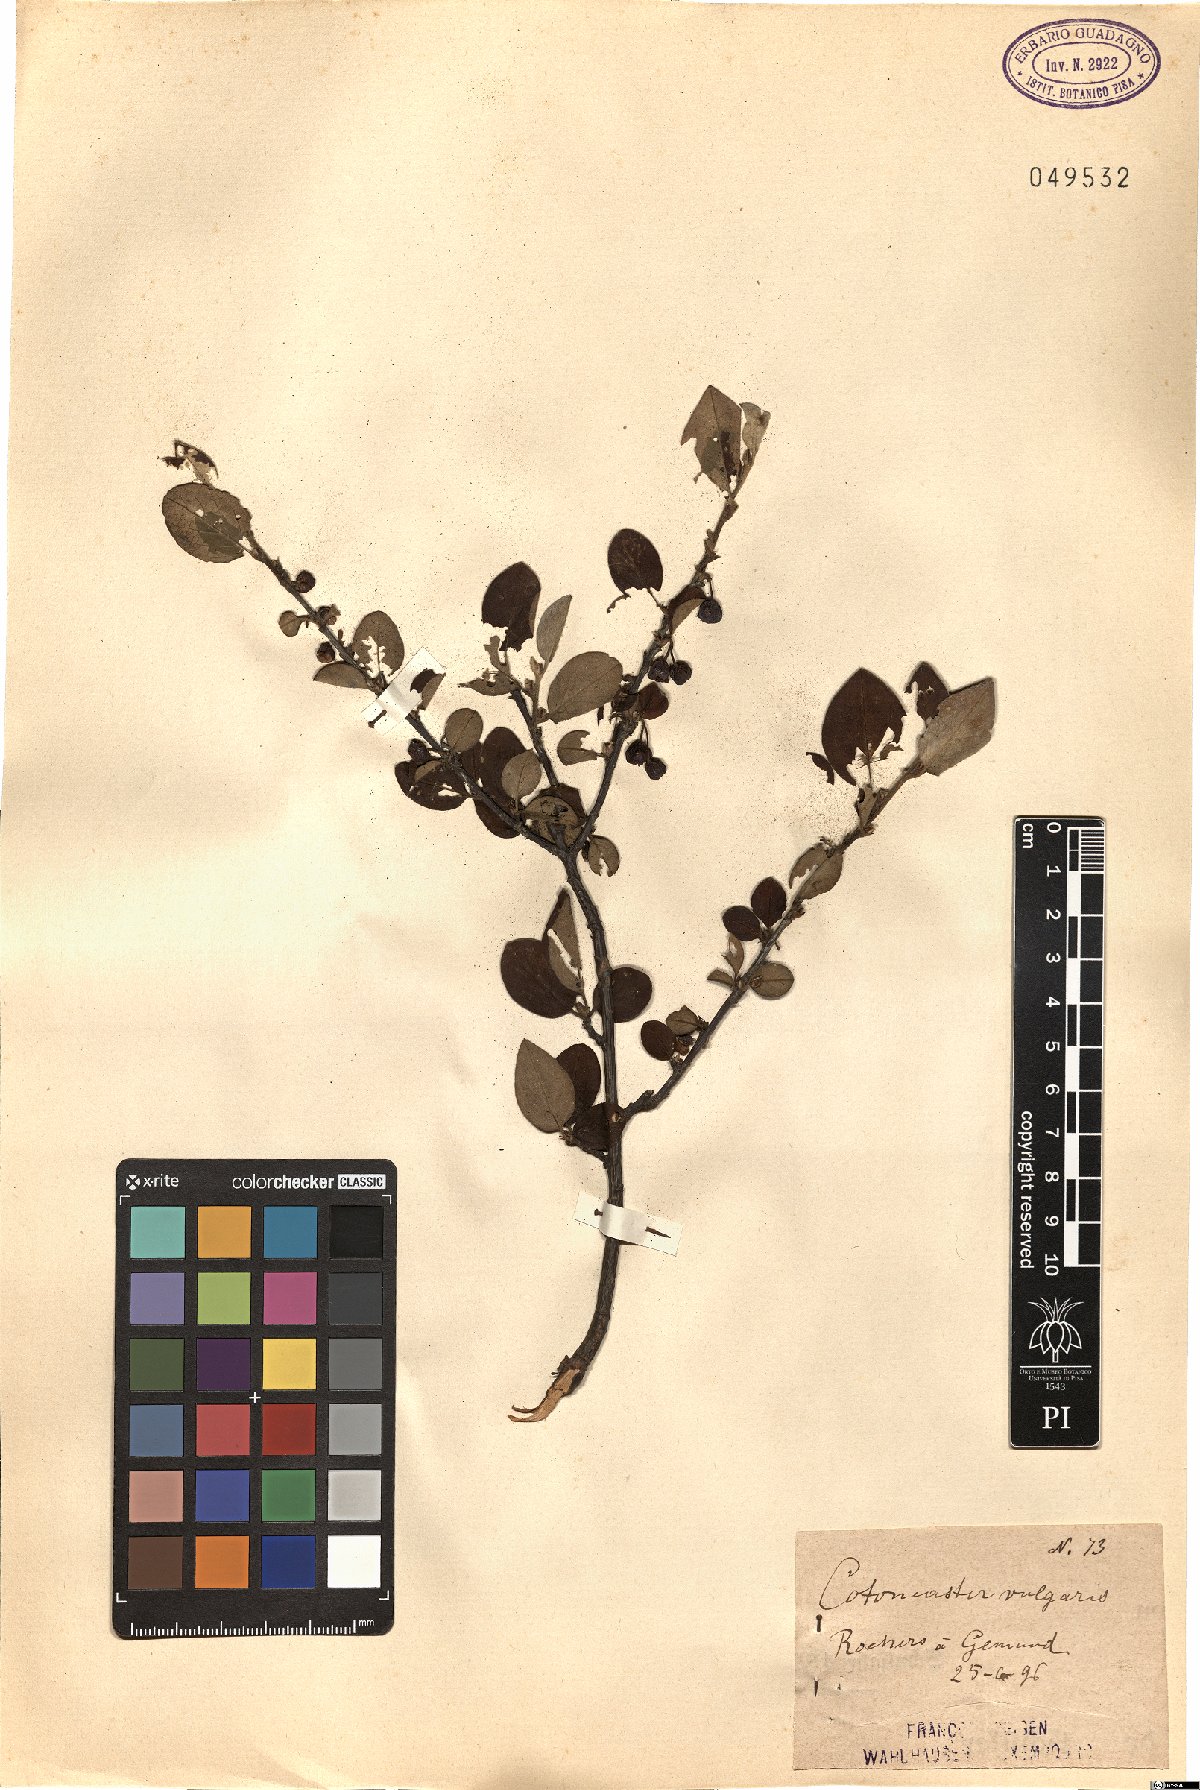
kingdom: Plantae
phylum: Tracheophyta
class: Magnoliopsida
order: Rosales
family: Rosaceae
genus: Cotoneaster
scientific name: Cotoneaster integerrimus
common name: Wild cotoneaster
